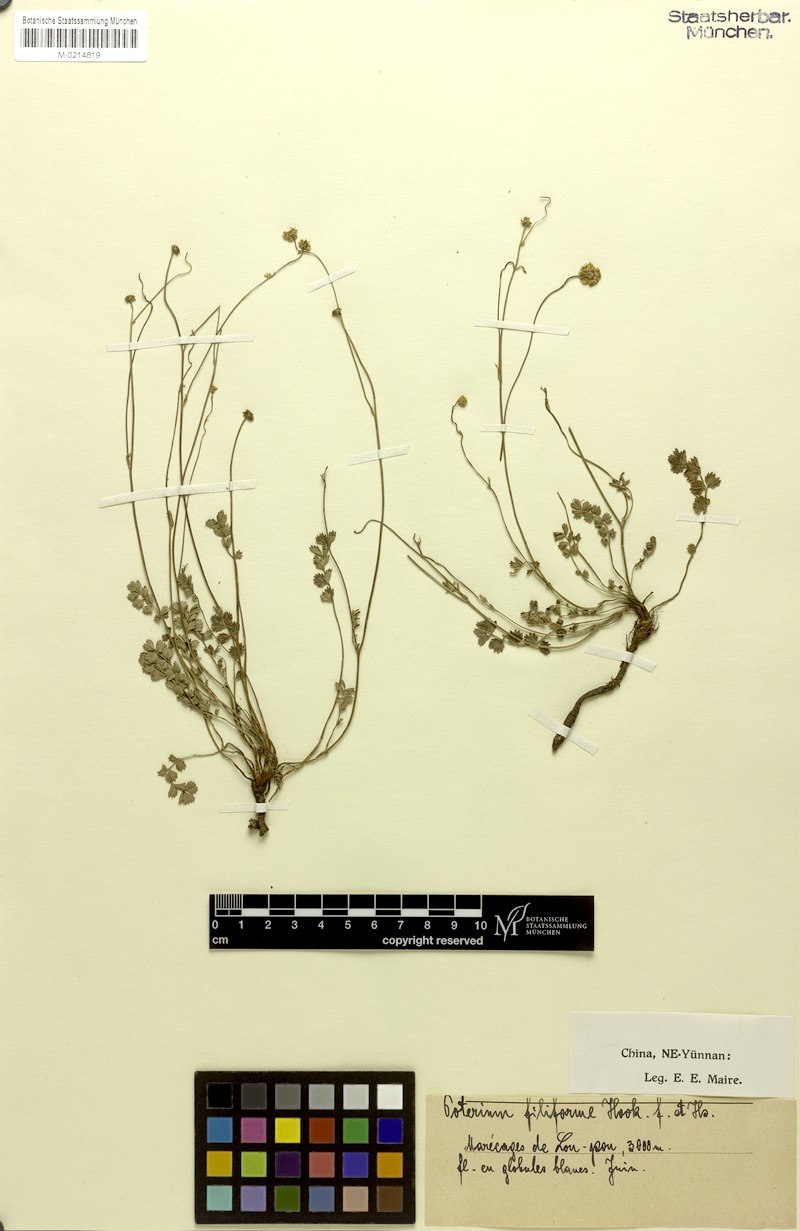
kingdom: Plantae
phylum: Tracheophyta
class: Magnoliopsida
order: Rosales
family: Rosaceae
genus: Poterium
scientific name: Poterium filiforme
